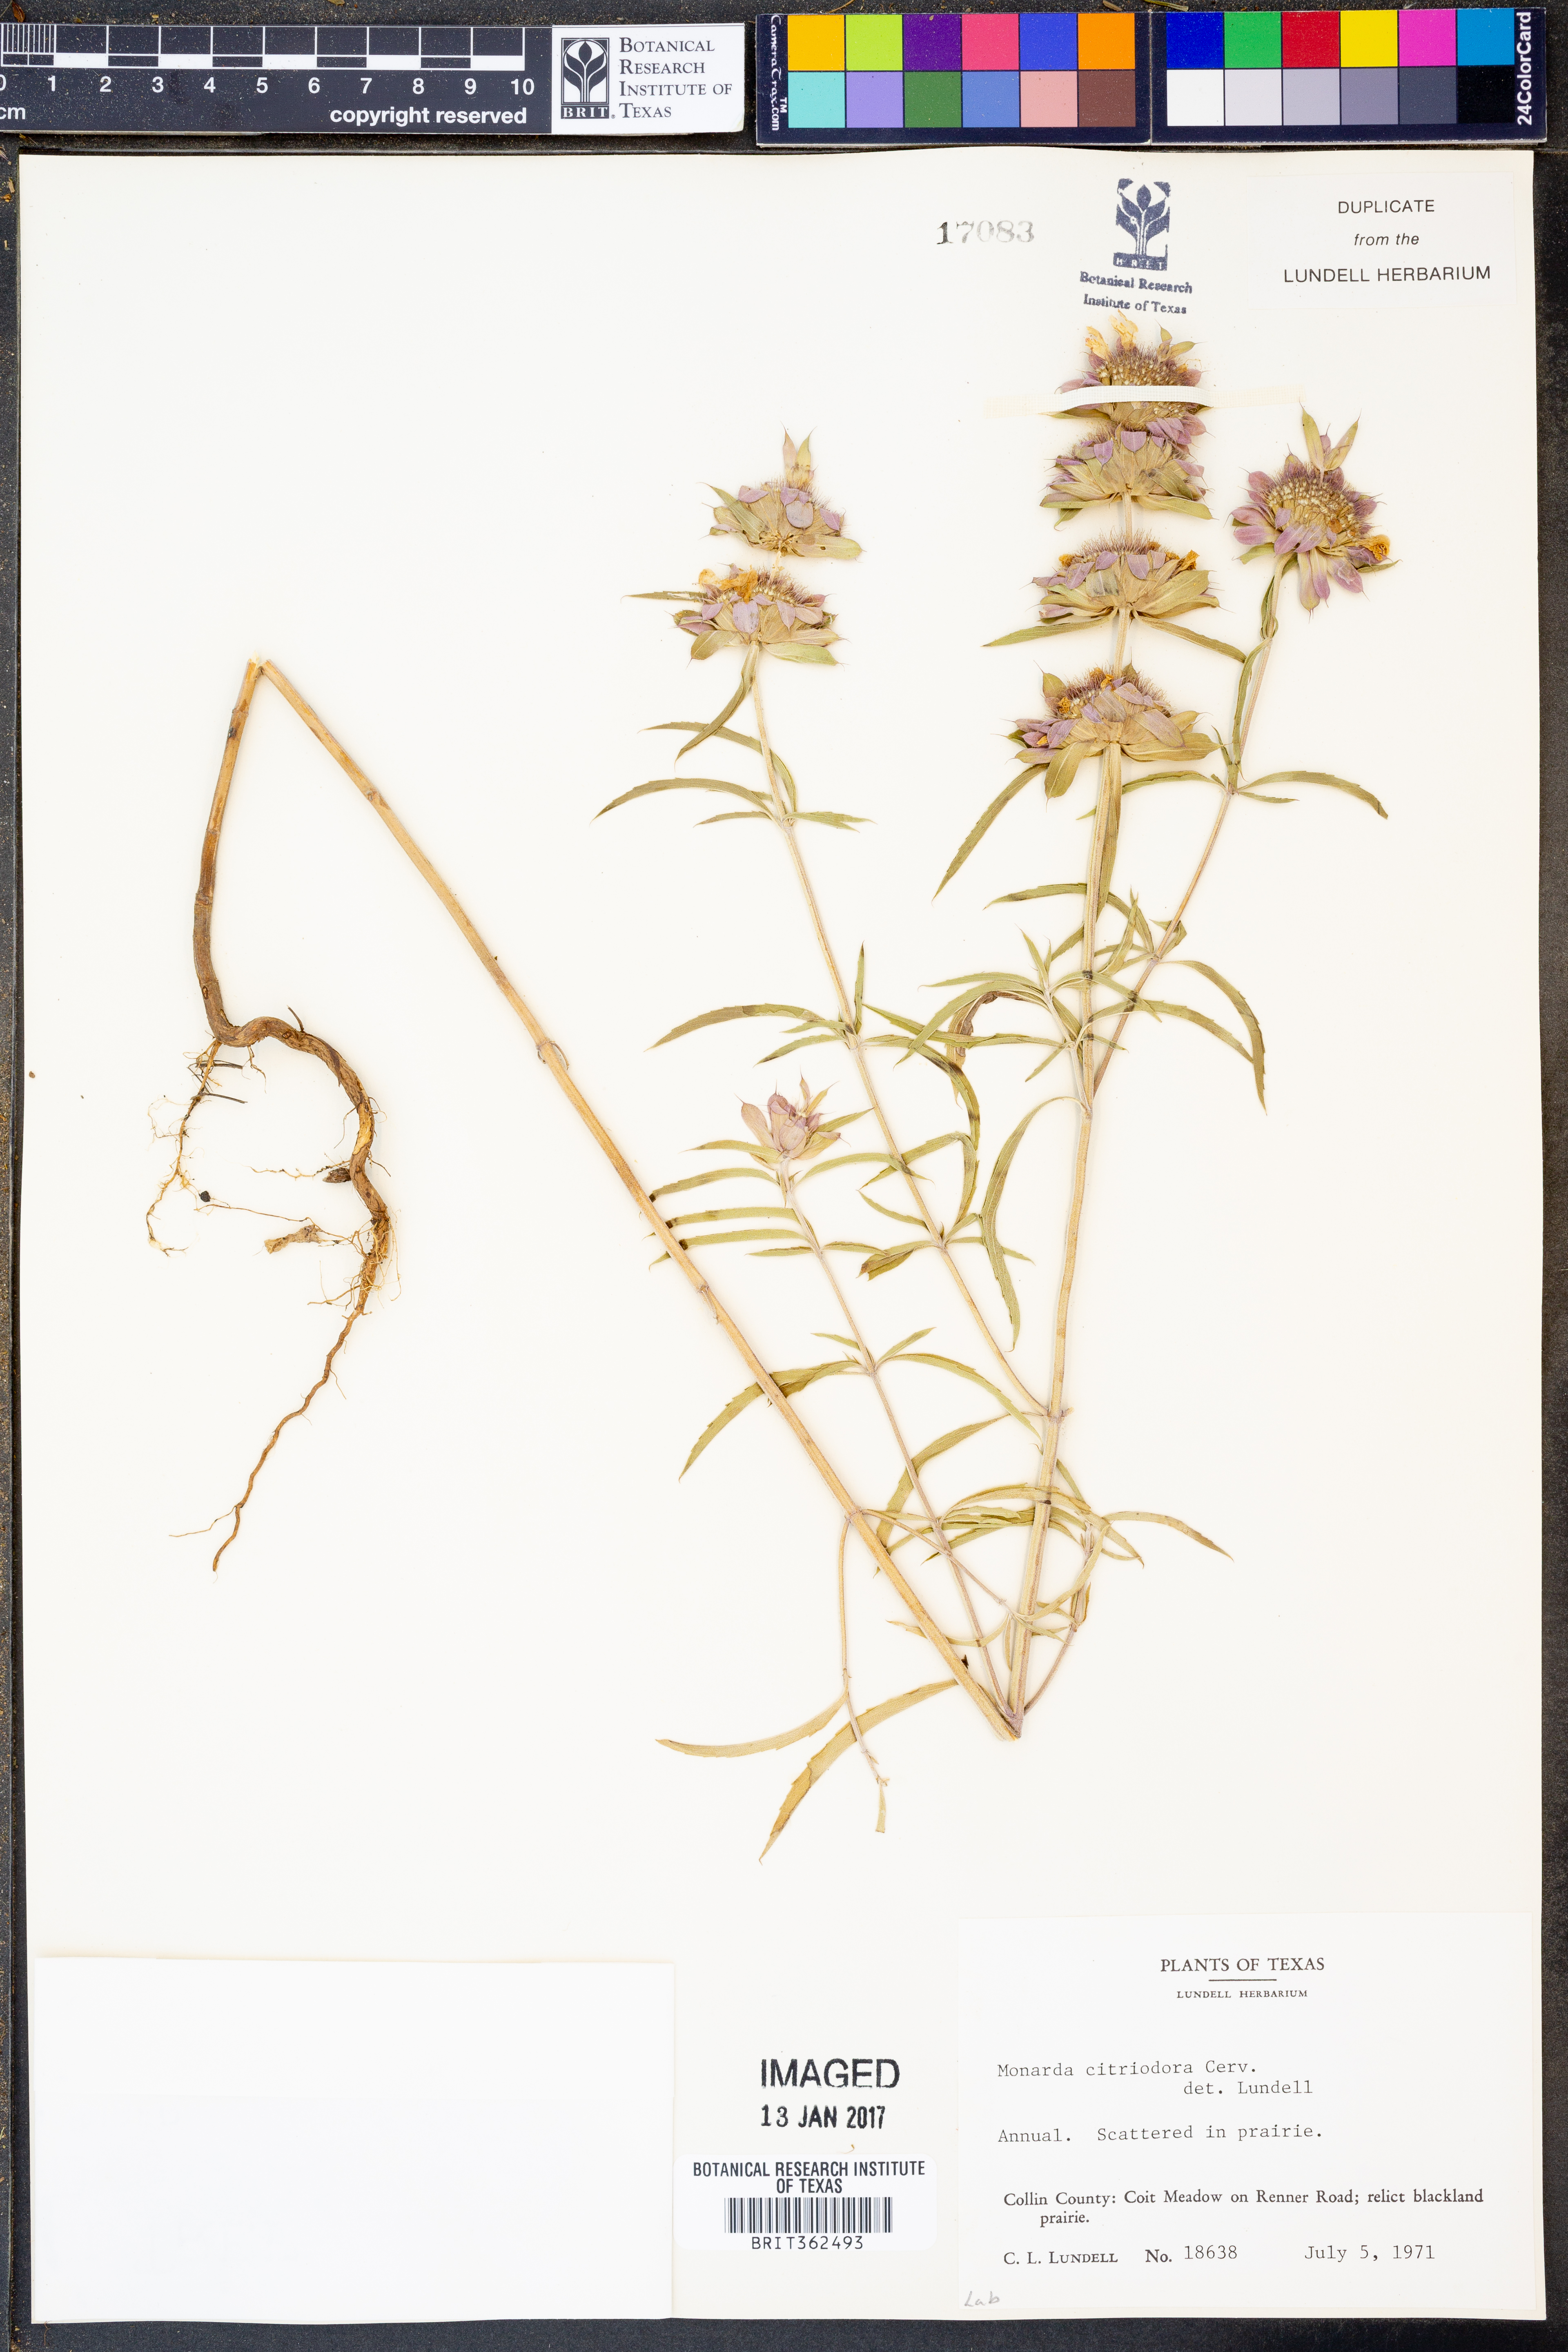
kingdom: Plantae
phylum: Tracheophyta
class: Magnoliopsida
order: Lamiales
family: Lamiaceae
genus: Monarda
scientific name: Monarda citriodora
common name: Lemon beebalm
